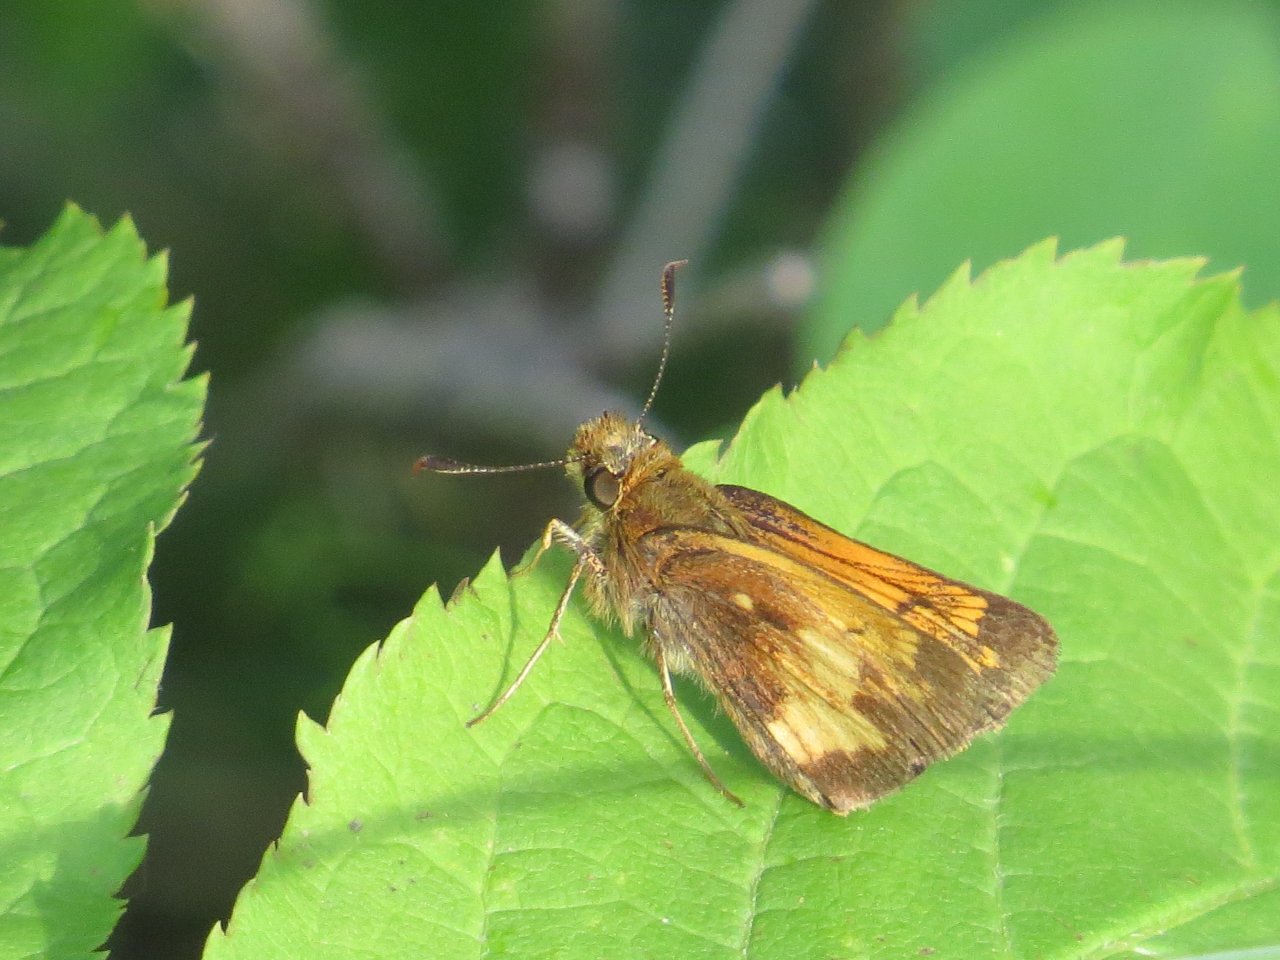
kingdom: Animalia
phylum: Arthropoda
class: Insecta
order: Lepidoptera
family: Hesperiidae
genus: Lon
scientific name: Lon hobomok
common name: Hobomok Skipper
